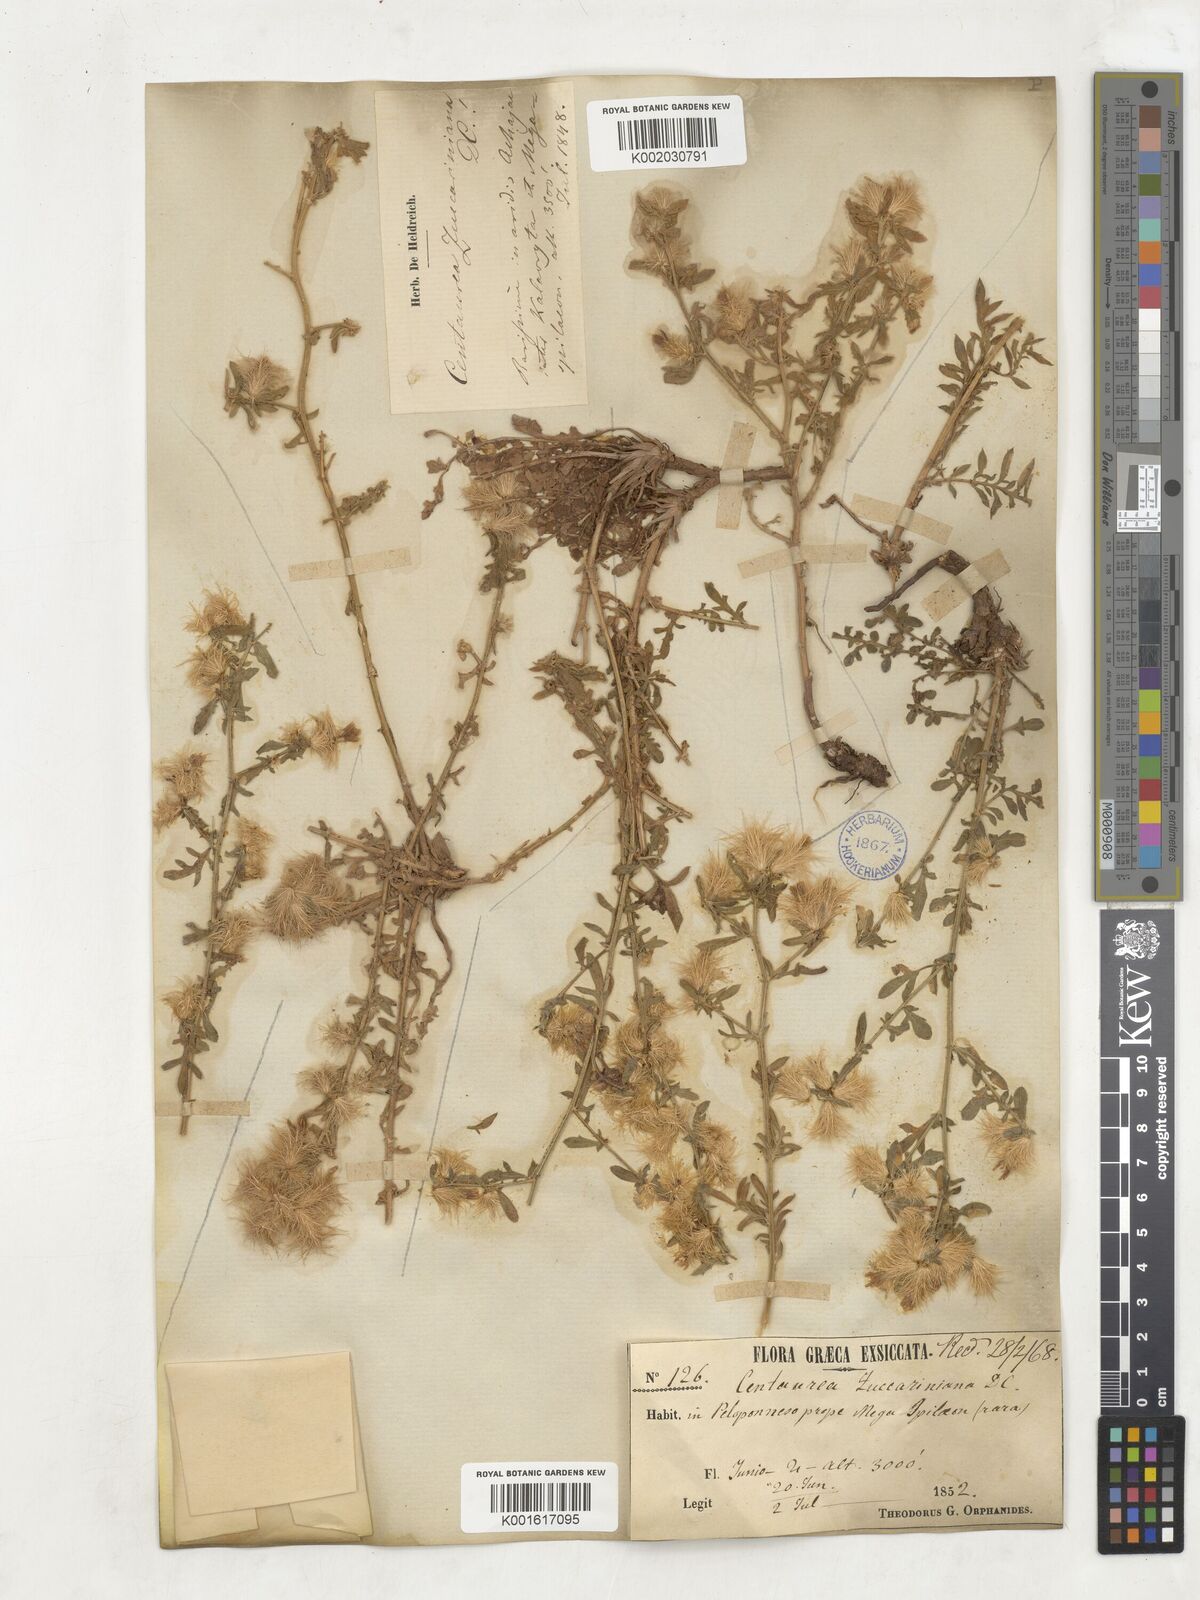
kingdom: Plantae
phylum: Tracheophyta
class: Magnoliopsida
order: Asterales
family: Asteraceae
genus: Centaurea
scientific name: Centaurea zuccariniana
